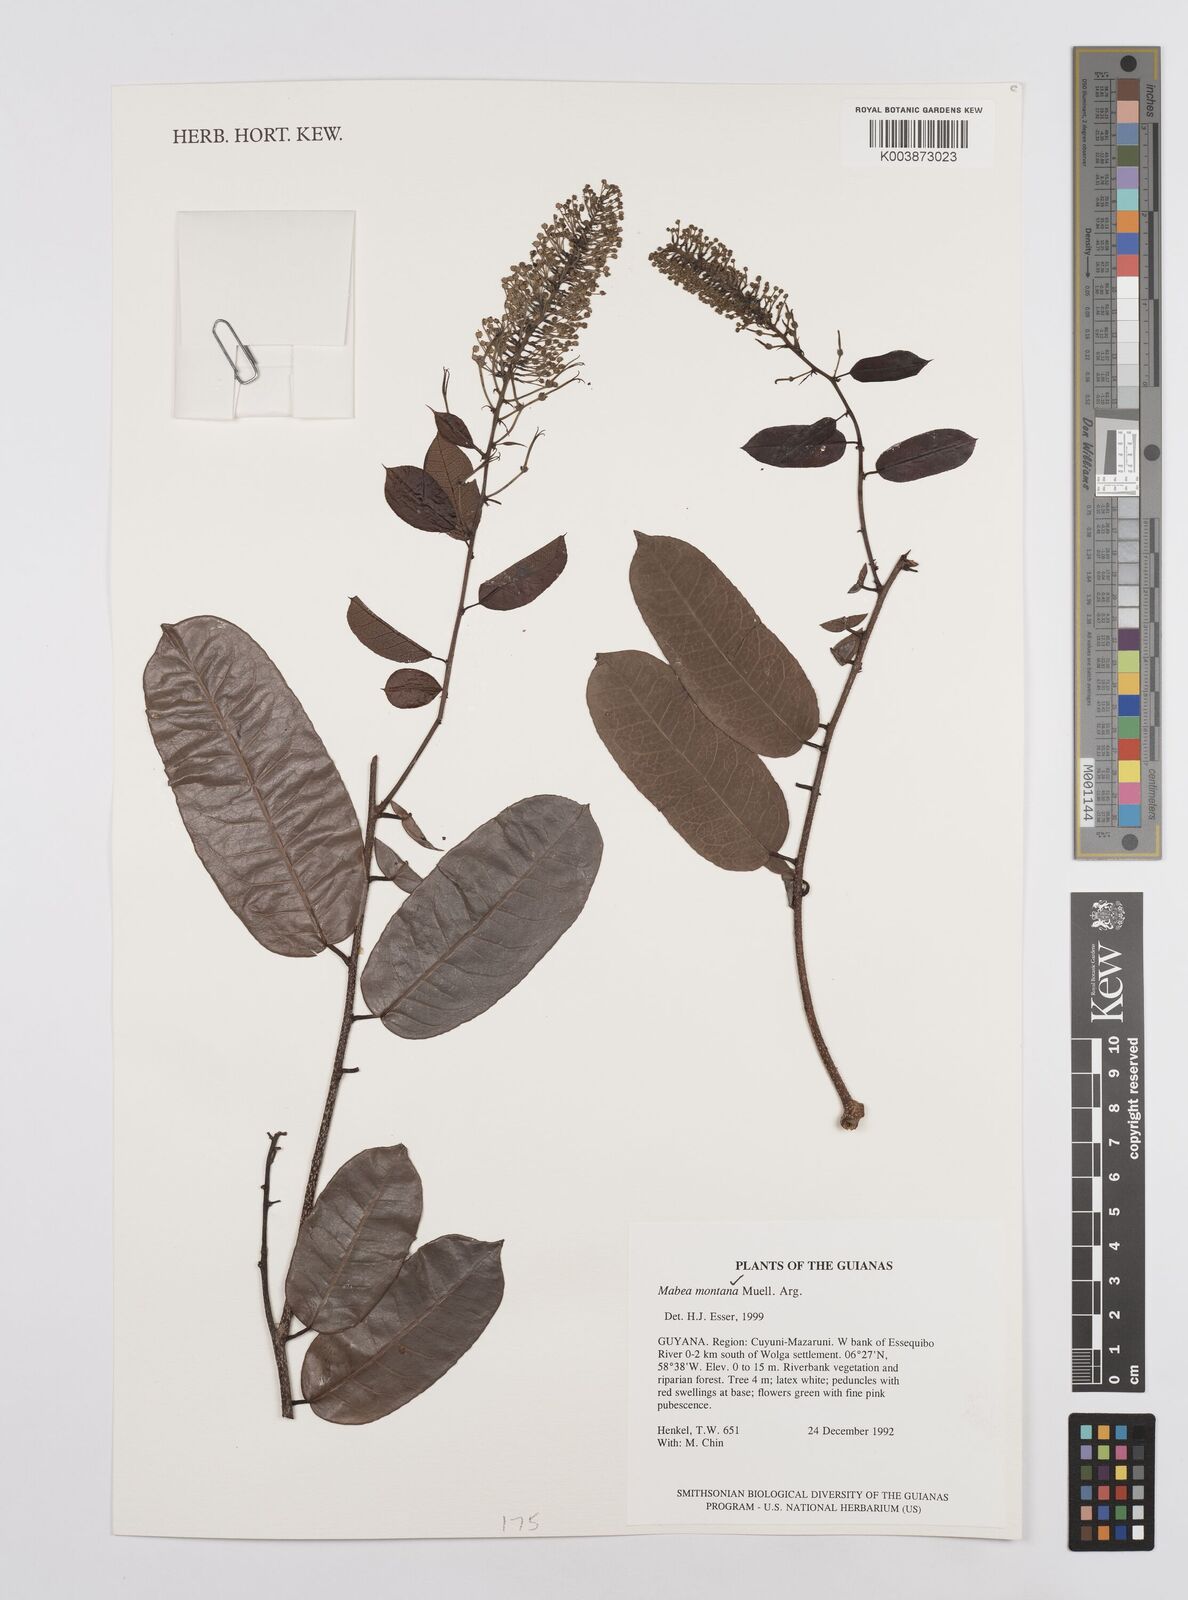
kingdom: Plantae
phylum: Tracheophyta
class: Magnoliopsida
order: Malpighiales
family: Euphorbiaceae
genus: Mabea
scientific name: Mabea montana
